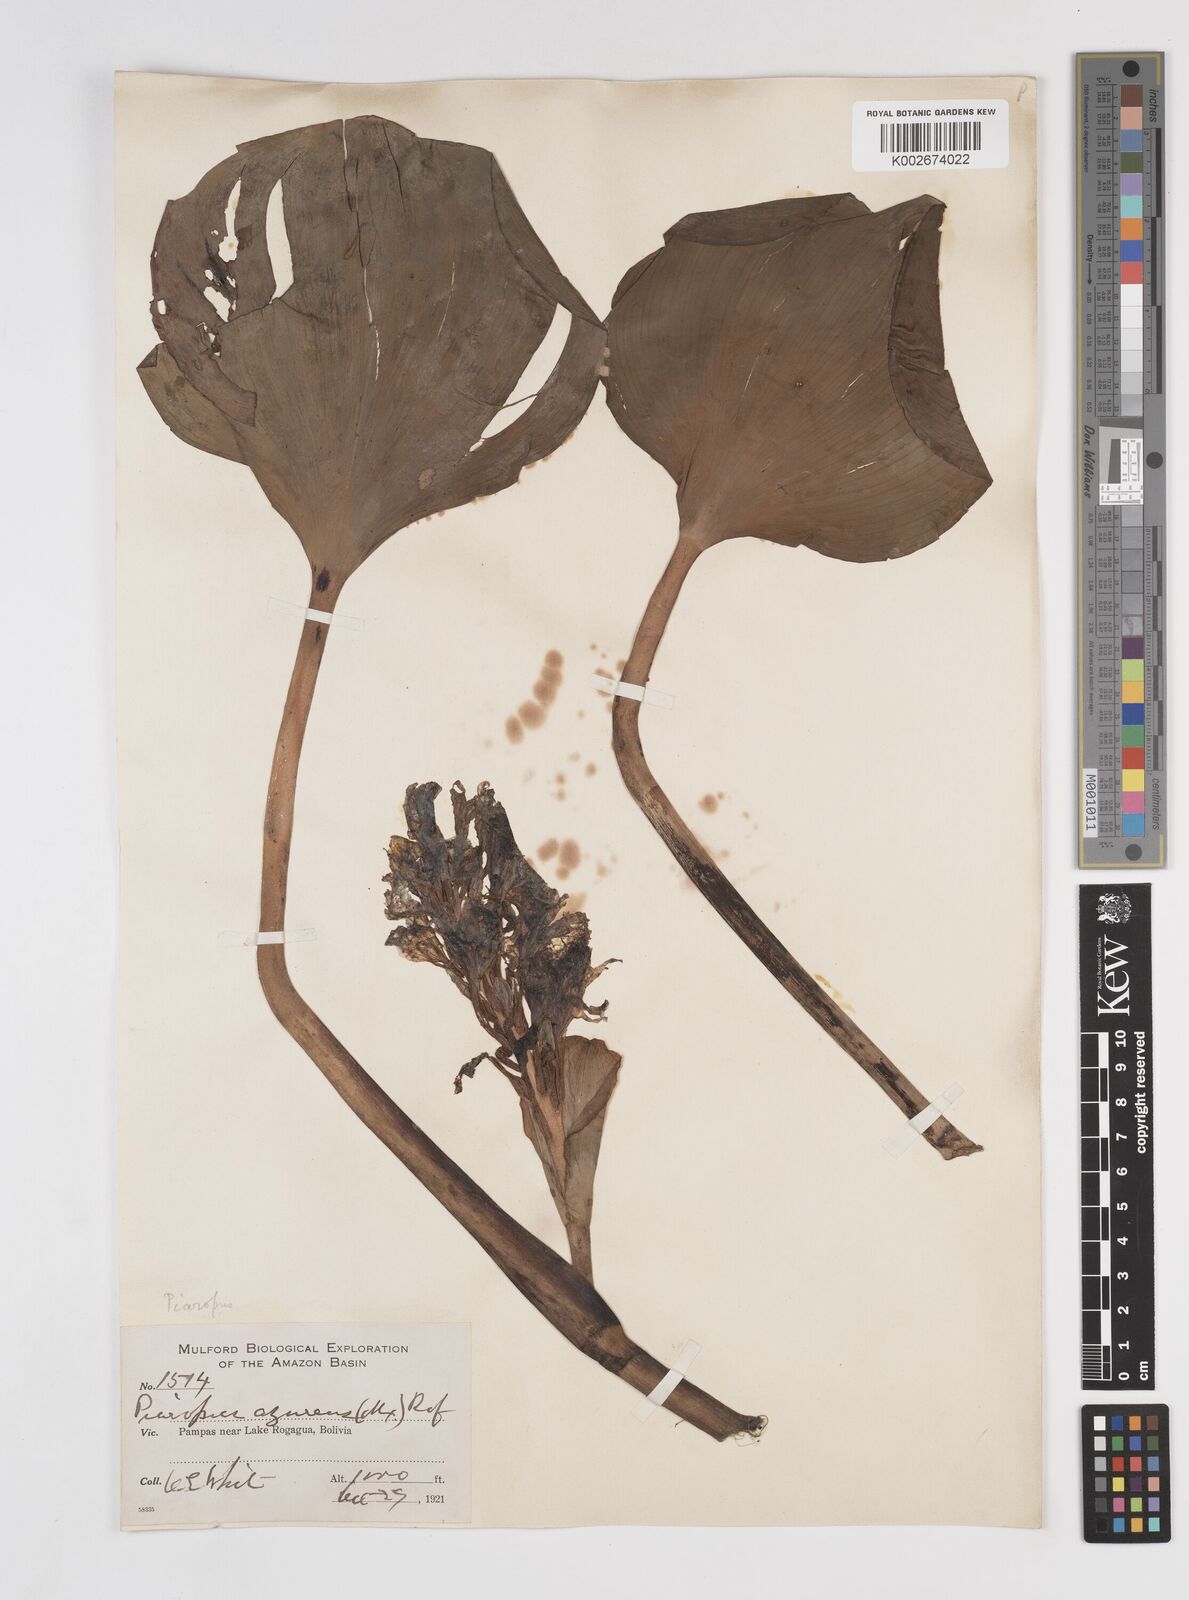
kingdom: Plantae
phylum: Tracheophyta
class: Liliopsida
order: Commelinales
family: Pontederiaceae
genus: Pontederia
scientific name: Pontederia azurea
